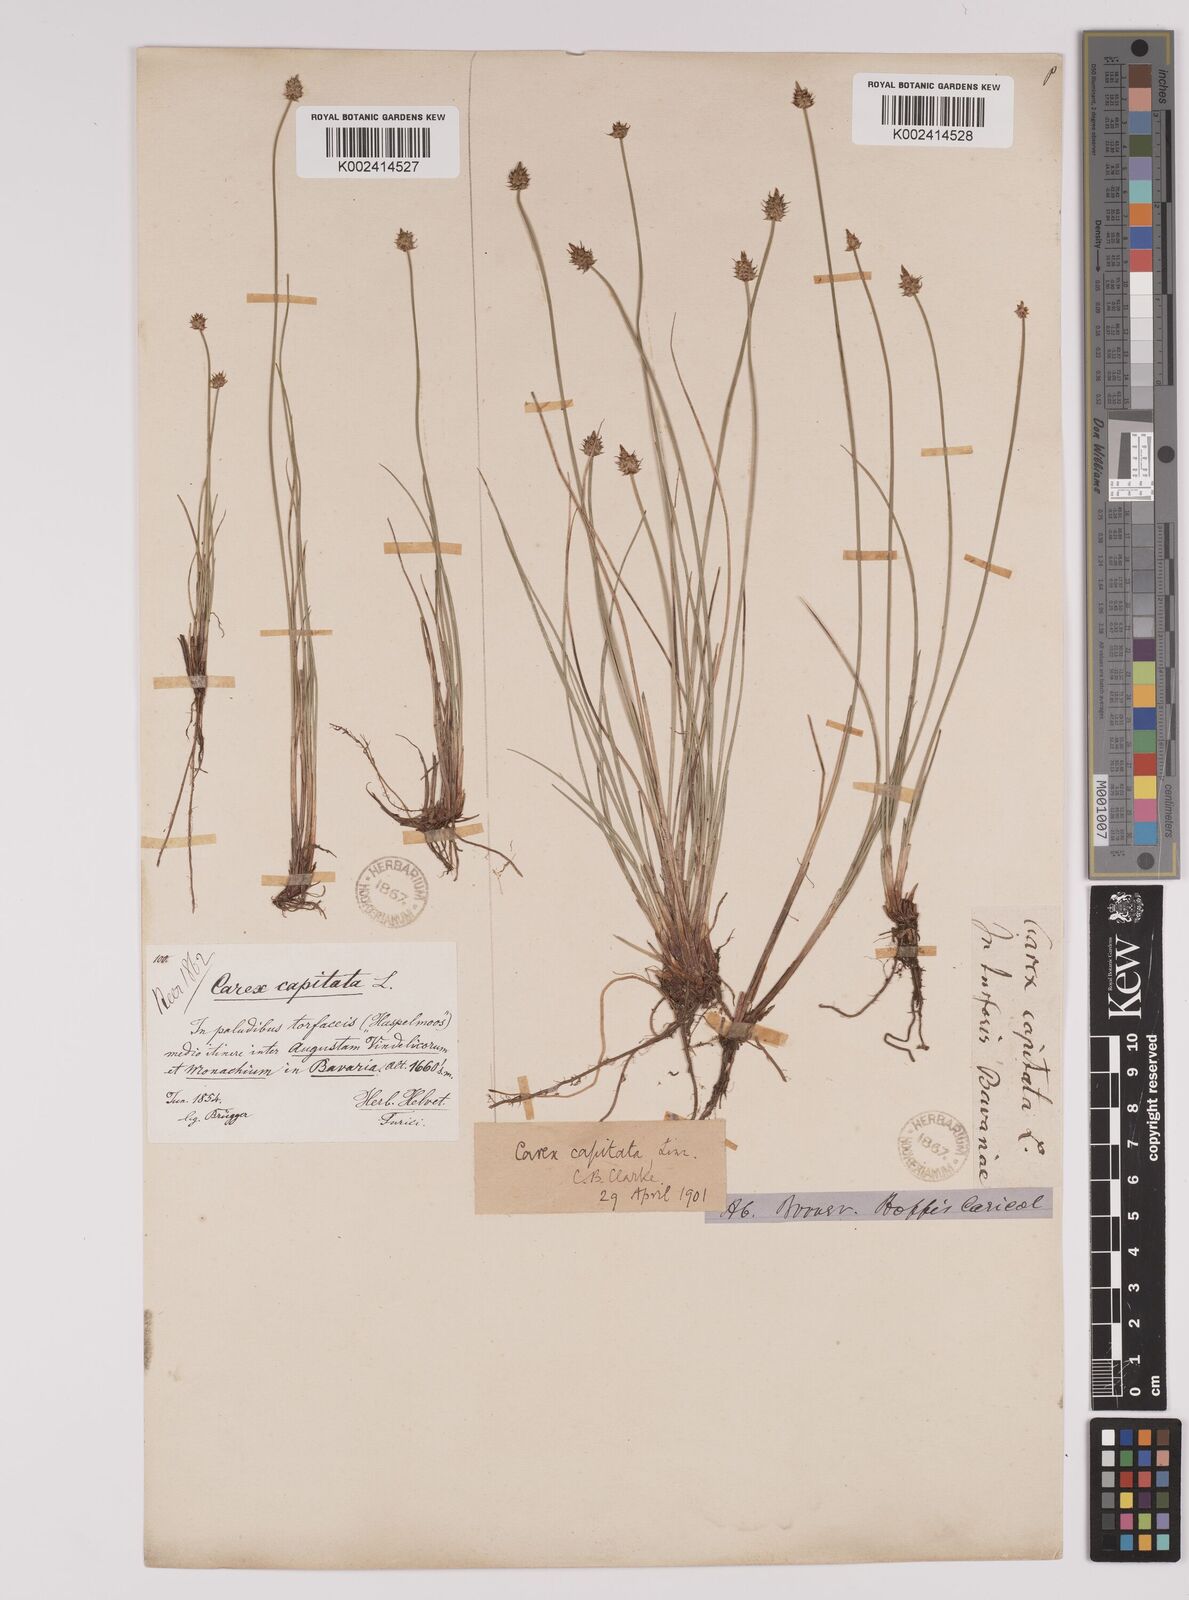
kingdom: Plantae
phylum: Tracheophyta
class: Liliopsida
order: Poales
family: Cyperaceae
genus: Carex
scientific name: Carex capitata
